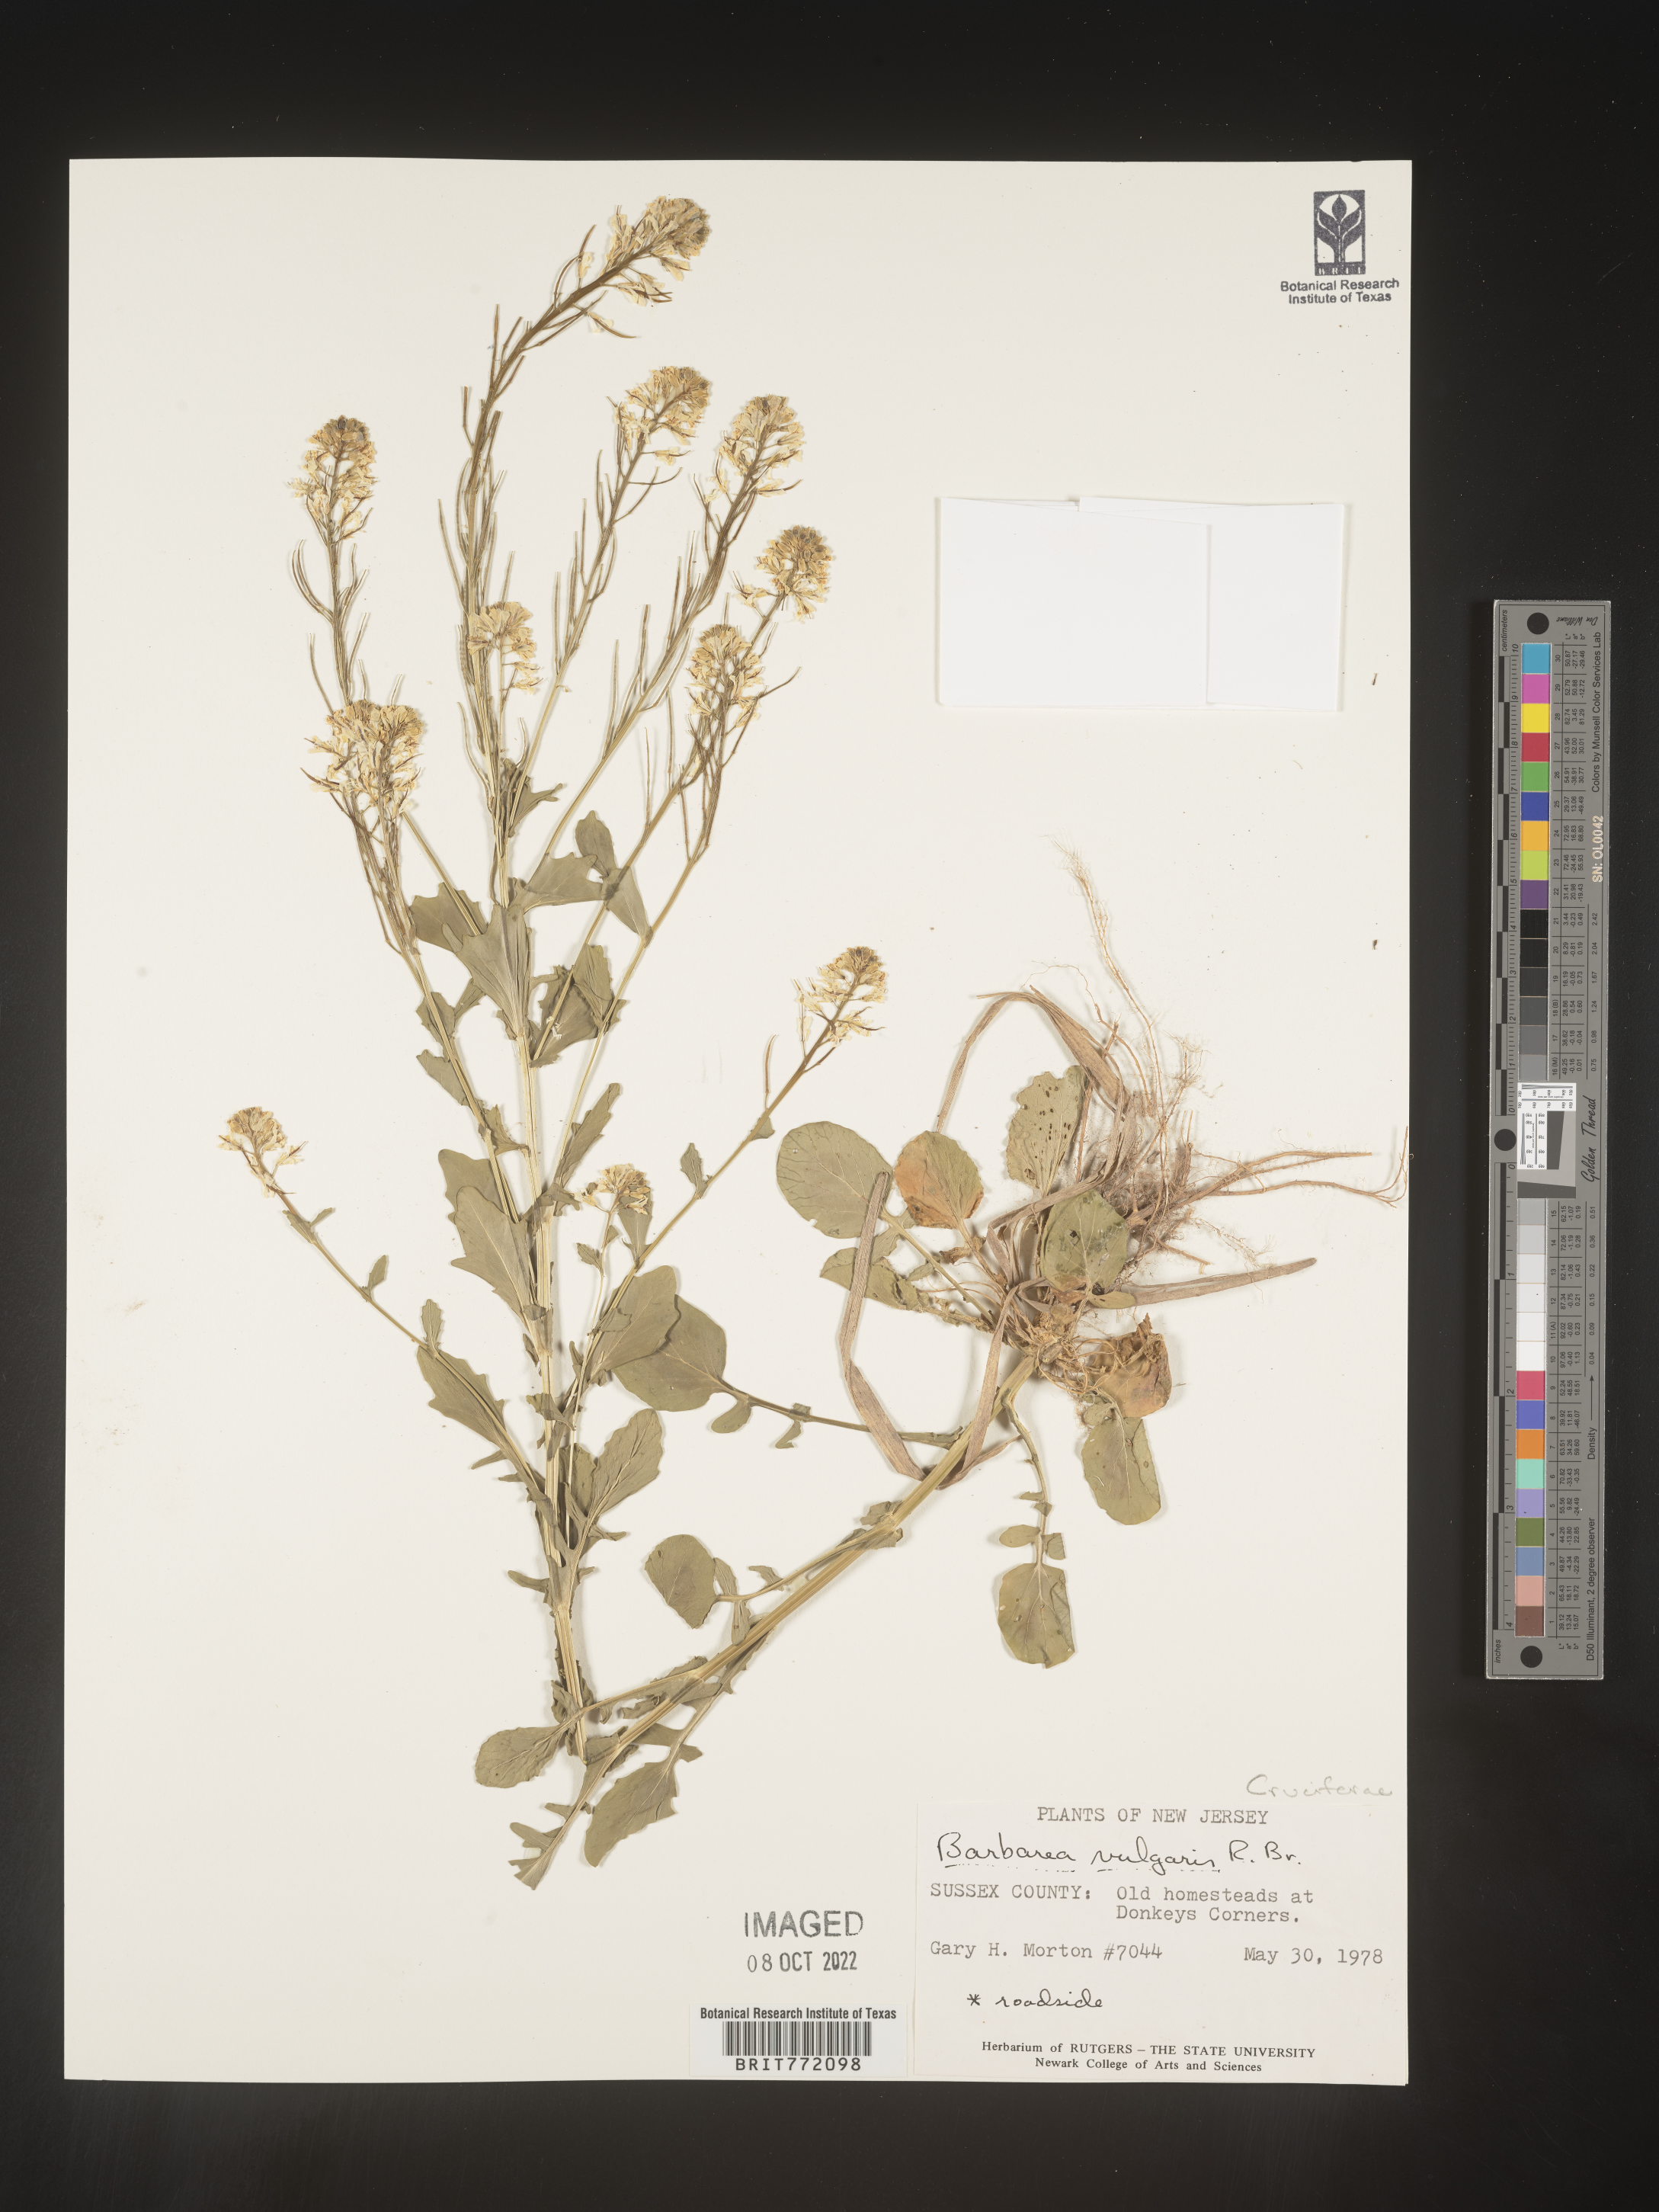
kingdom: Plantae
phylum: Tracheophyta
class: Magnoliopsida
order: Brassicales
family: Brassicaceae
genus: Barbarea
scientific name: Barbarea vulgaris
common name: Cressy-greens
